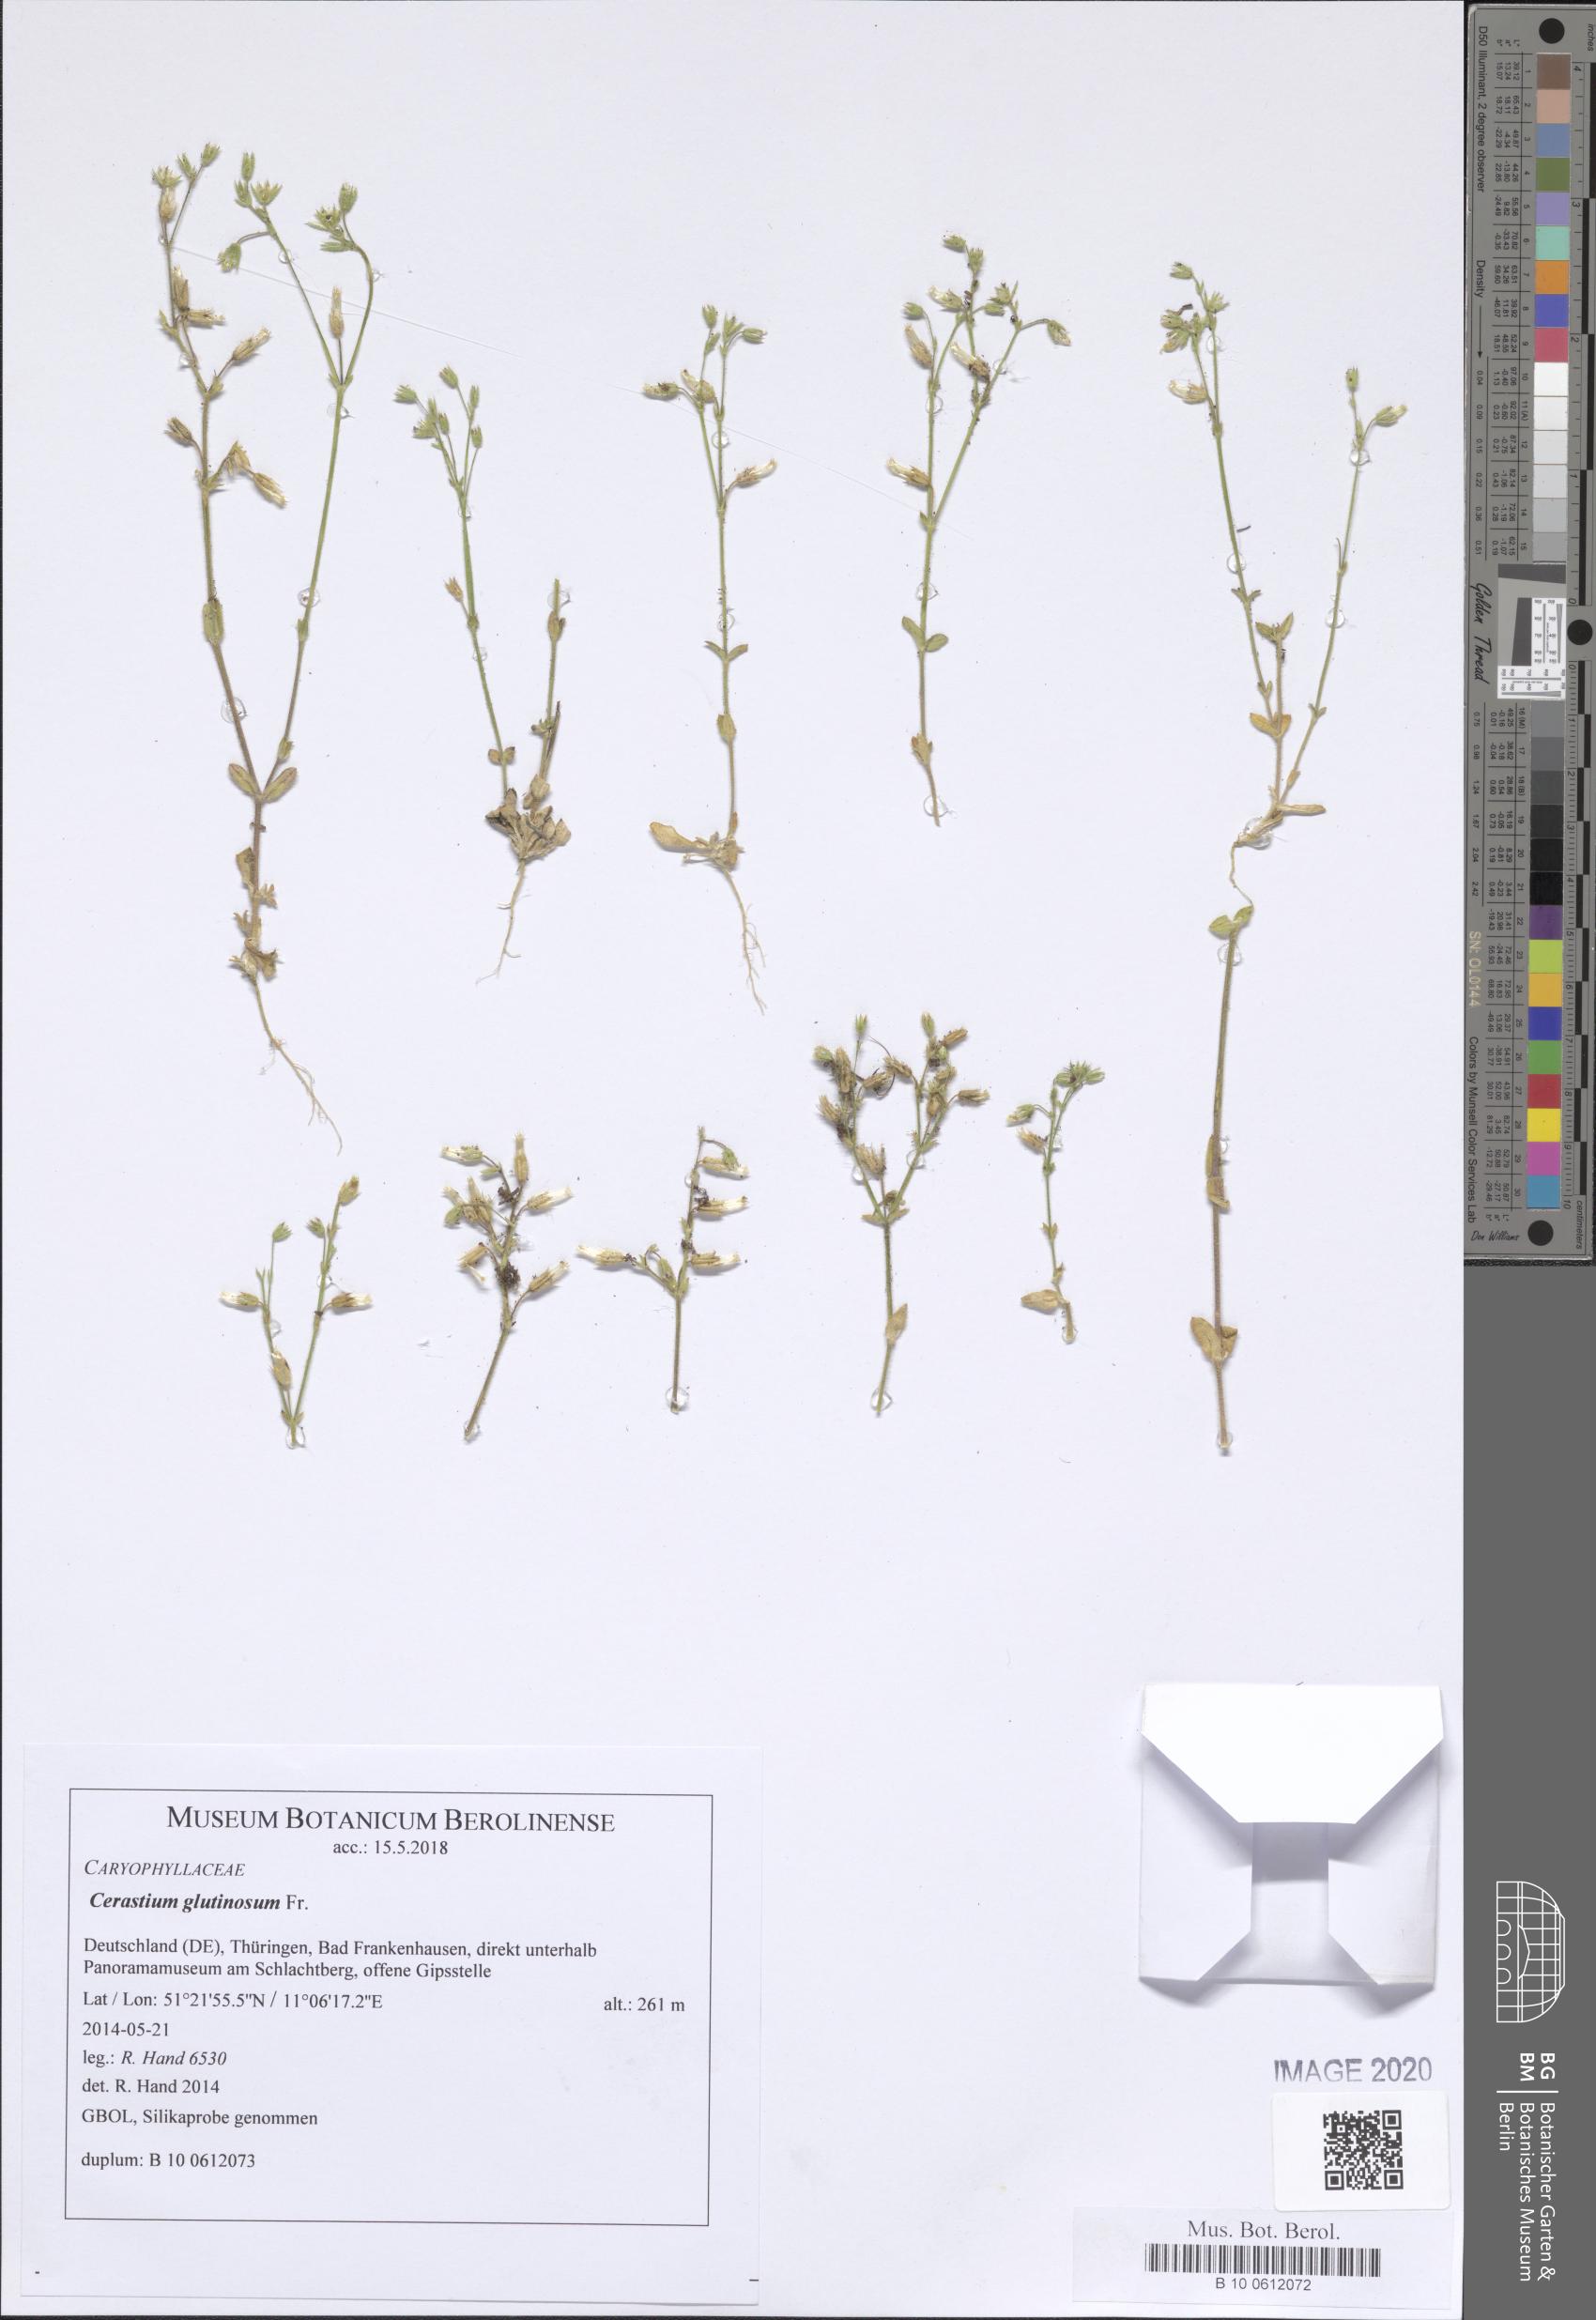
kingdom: Plantae
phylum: Tracheophyta
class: Magnoliopsida
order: Caryophyllales
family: Caryophyllaceae
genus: Cerastium
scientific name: Cerastium pumilum
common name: Dwarf mouse-ear
